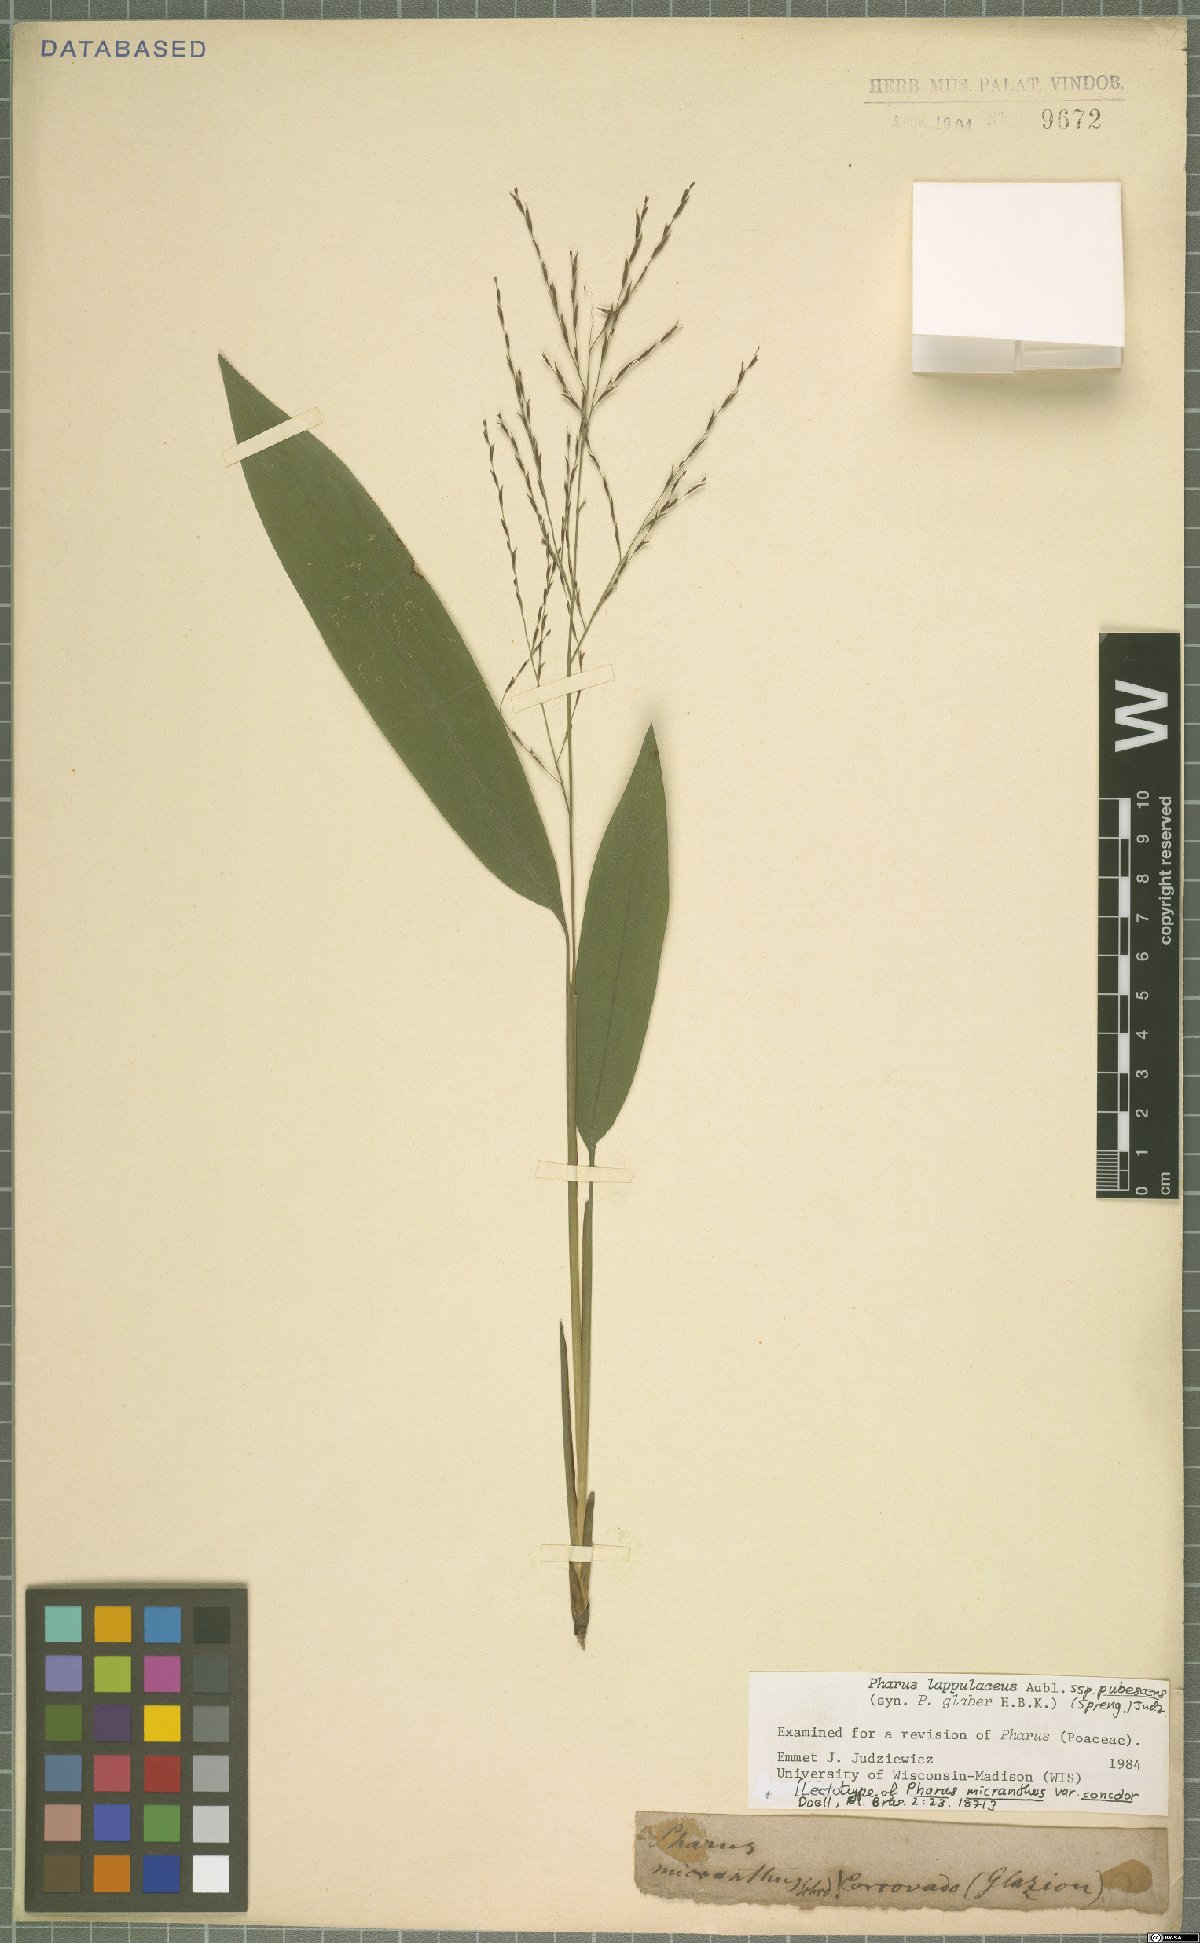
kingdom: Plantae
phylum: Tracheophyta
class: Liliopsida
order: Poales
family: Poaceae
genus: Pharus
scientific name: Pharus lappulaceus
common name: Creeping leafstalk grass
